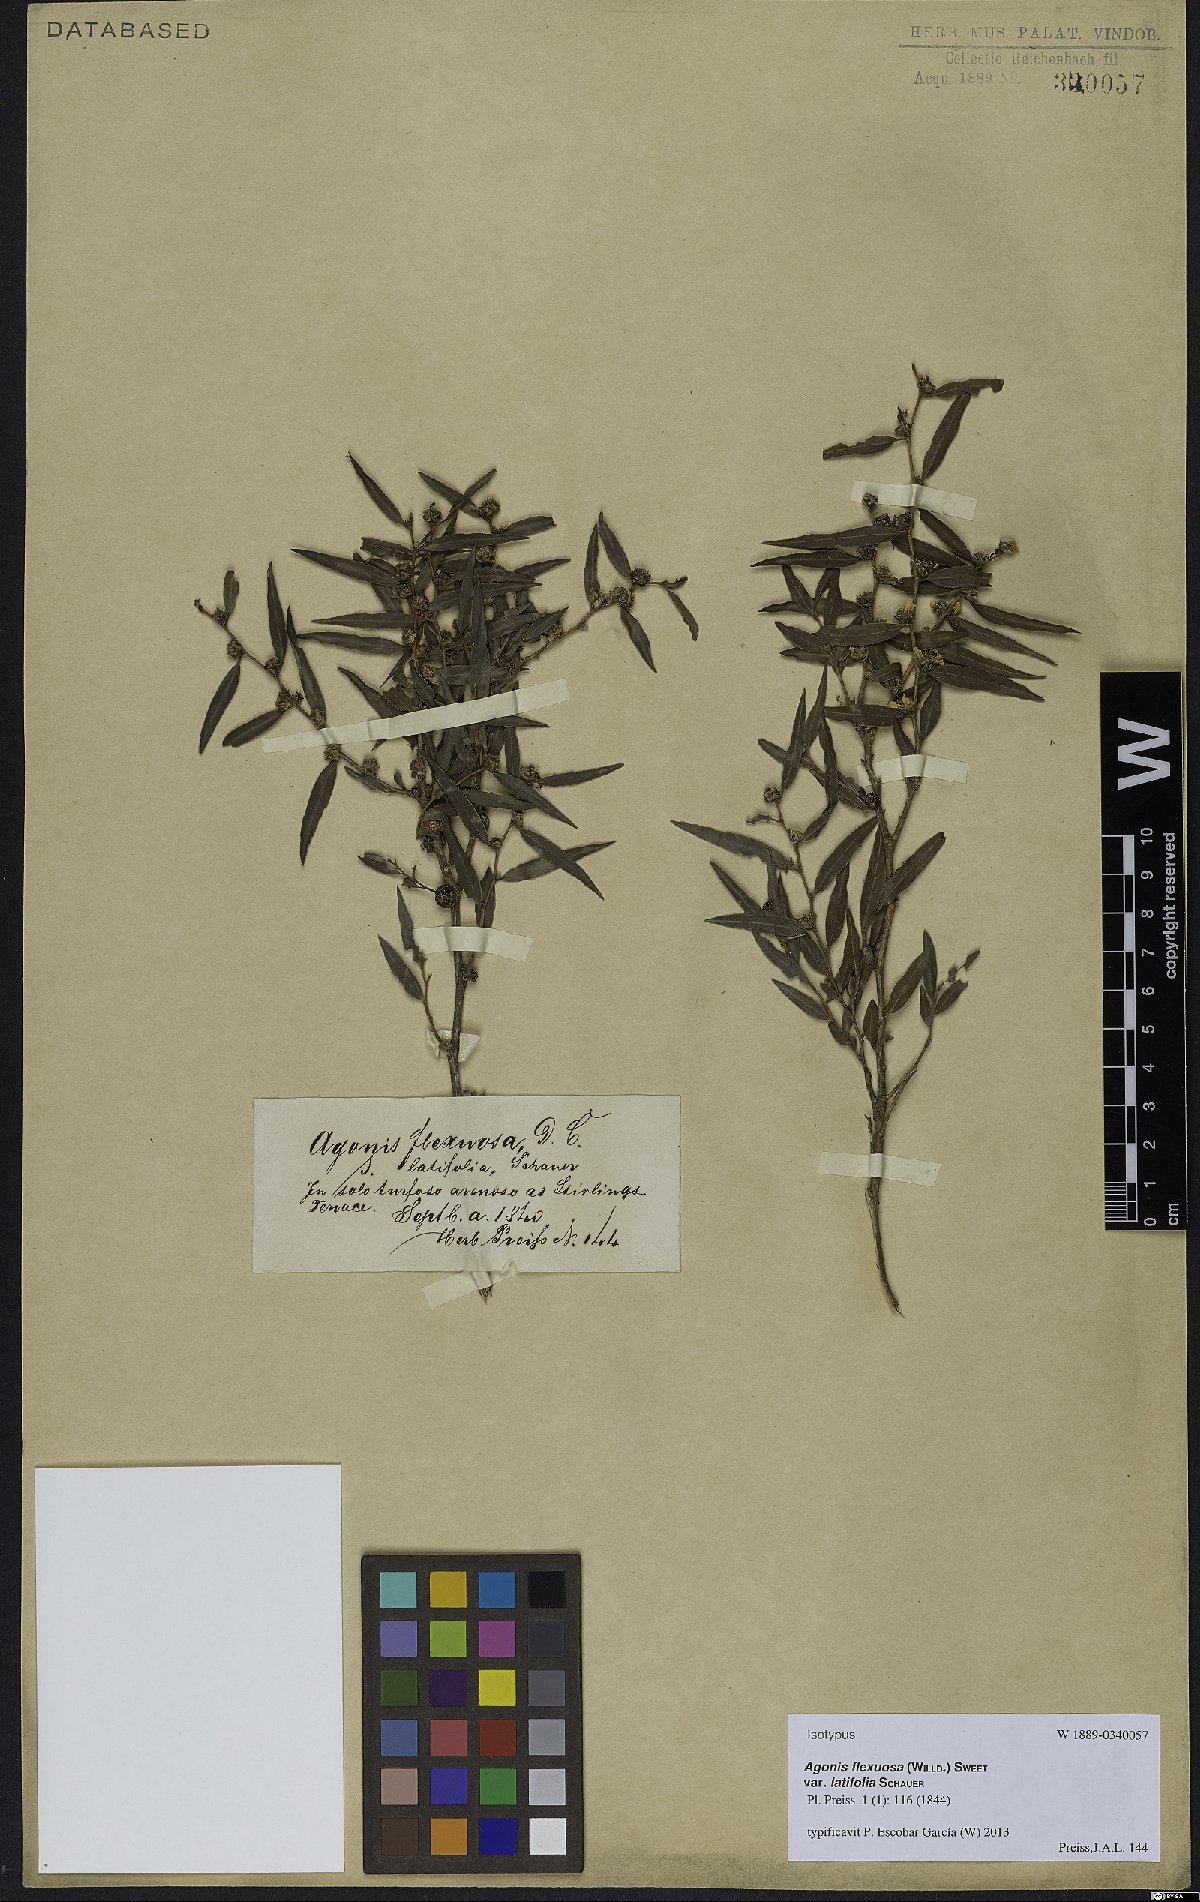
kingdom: Plantae
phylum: Tracheophyta
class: Magnoliopsida
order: Myrtales
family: Myrtaceae
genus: Agonis
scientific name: Agonis flexuosa
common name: Willow myrtle
